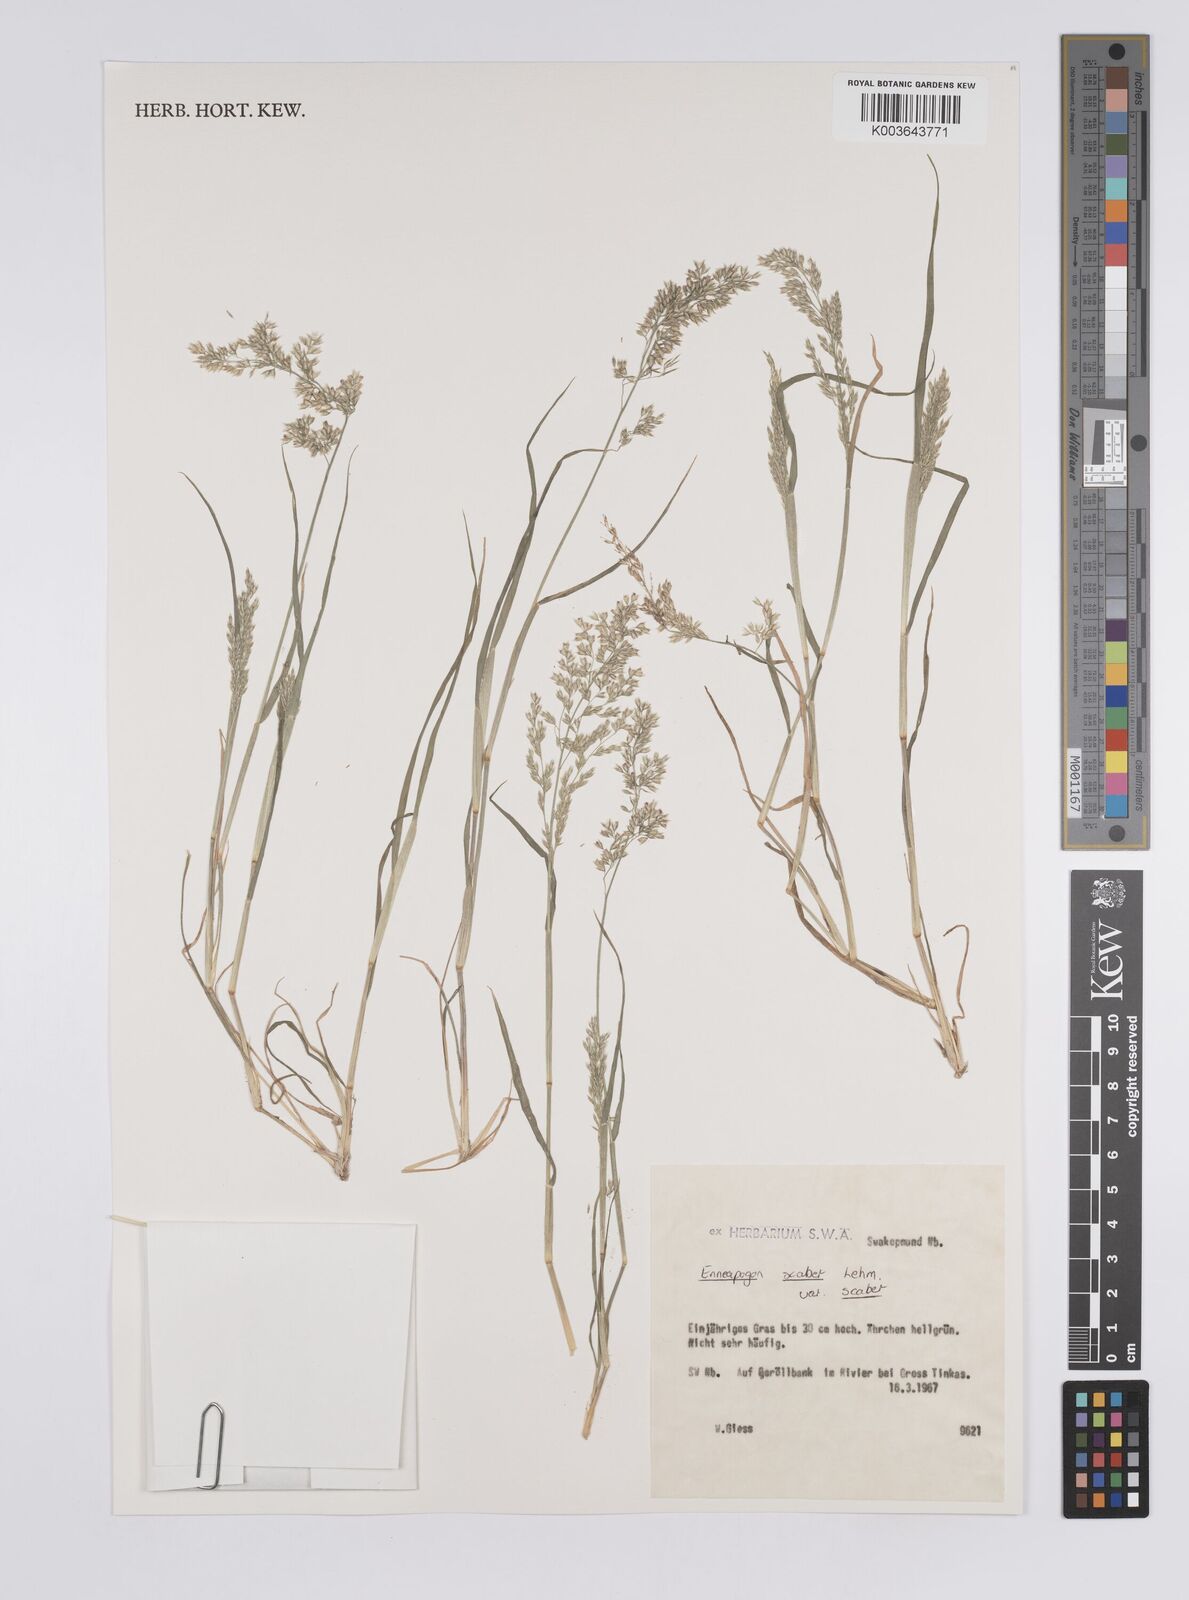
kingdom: Plantae
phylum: Tracheophyta
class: Liliopsida
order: Poales
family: Poaceae
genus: Enneapogon
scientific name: Enneapogon scaber
